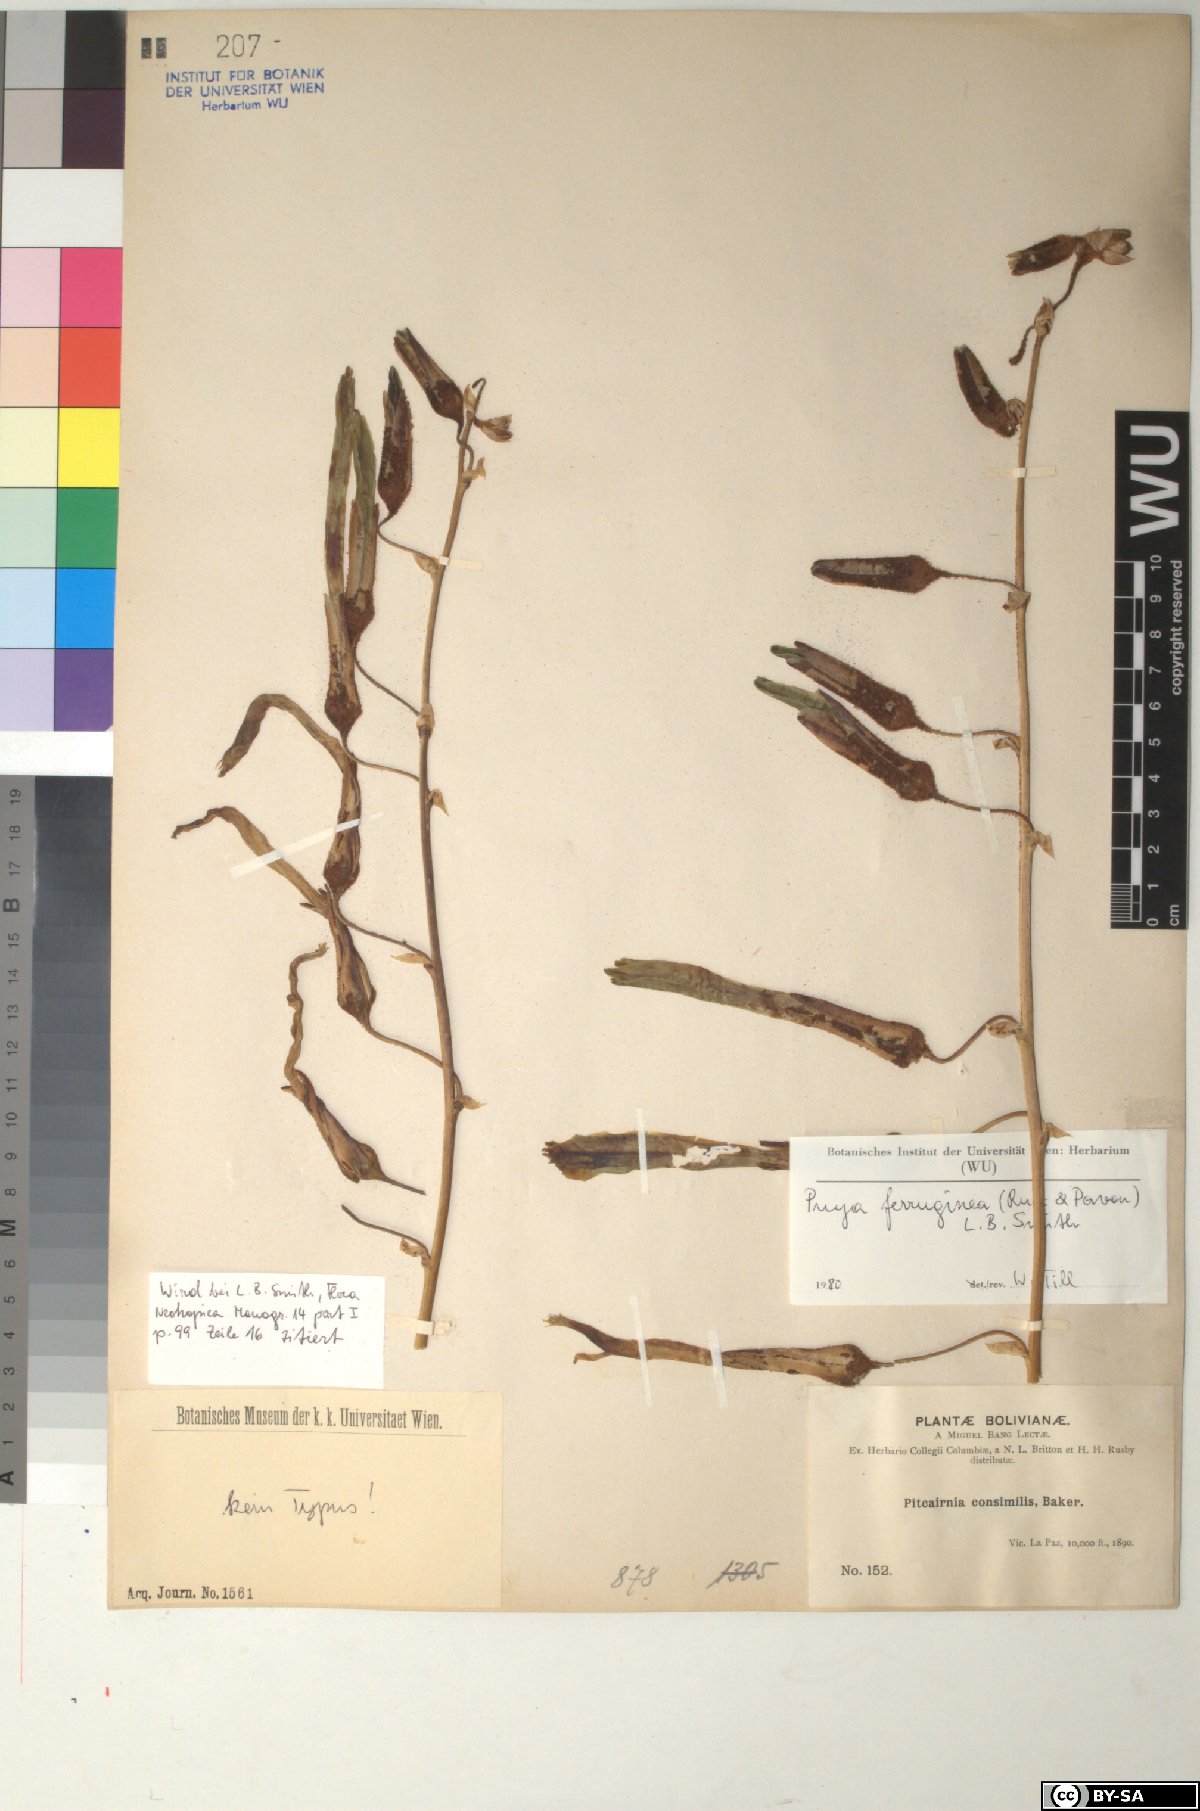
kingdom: Plantae
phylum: Tracheophyta
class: Liliopsida
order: Poales
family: Bromeliaceae
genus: Puya
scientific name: Puya ferruginea
